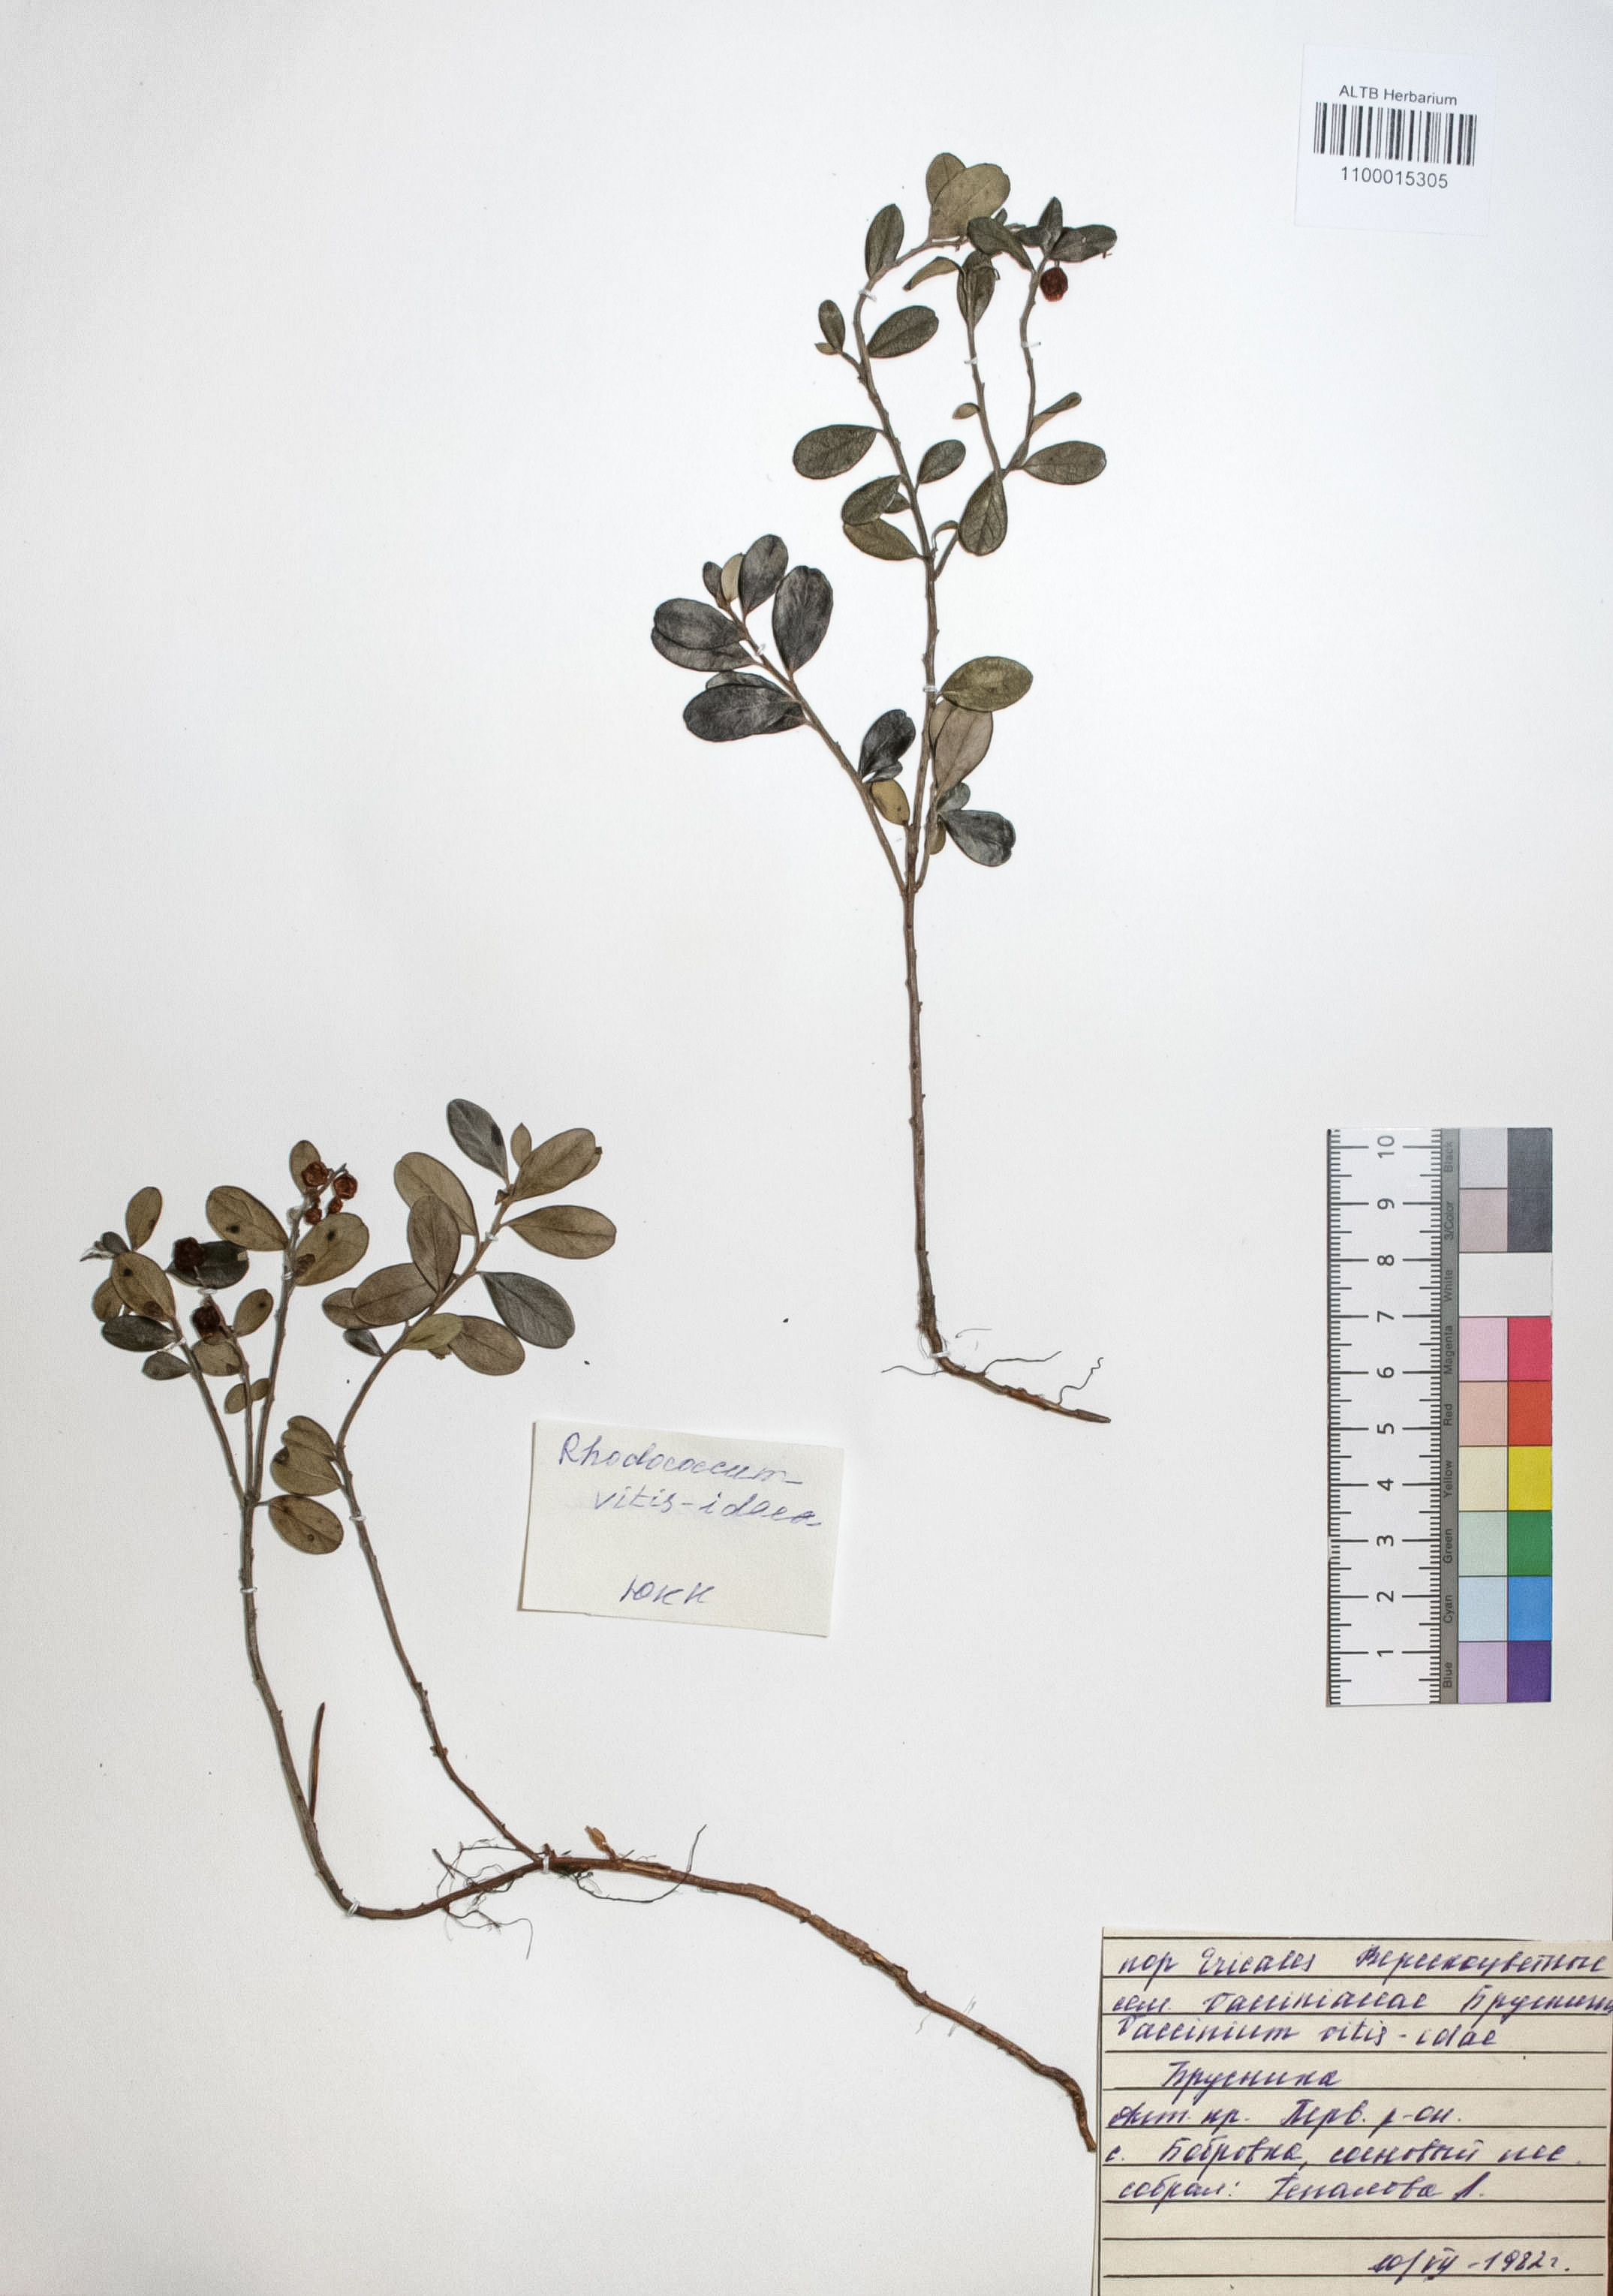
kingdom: Plantae
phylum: Tracheophyta
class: Magnoliopsida
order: Ericales
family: Ericaceae
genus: Vaccinium
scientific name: Vaccinium vitis-idaea
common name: Cowberry
